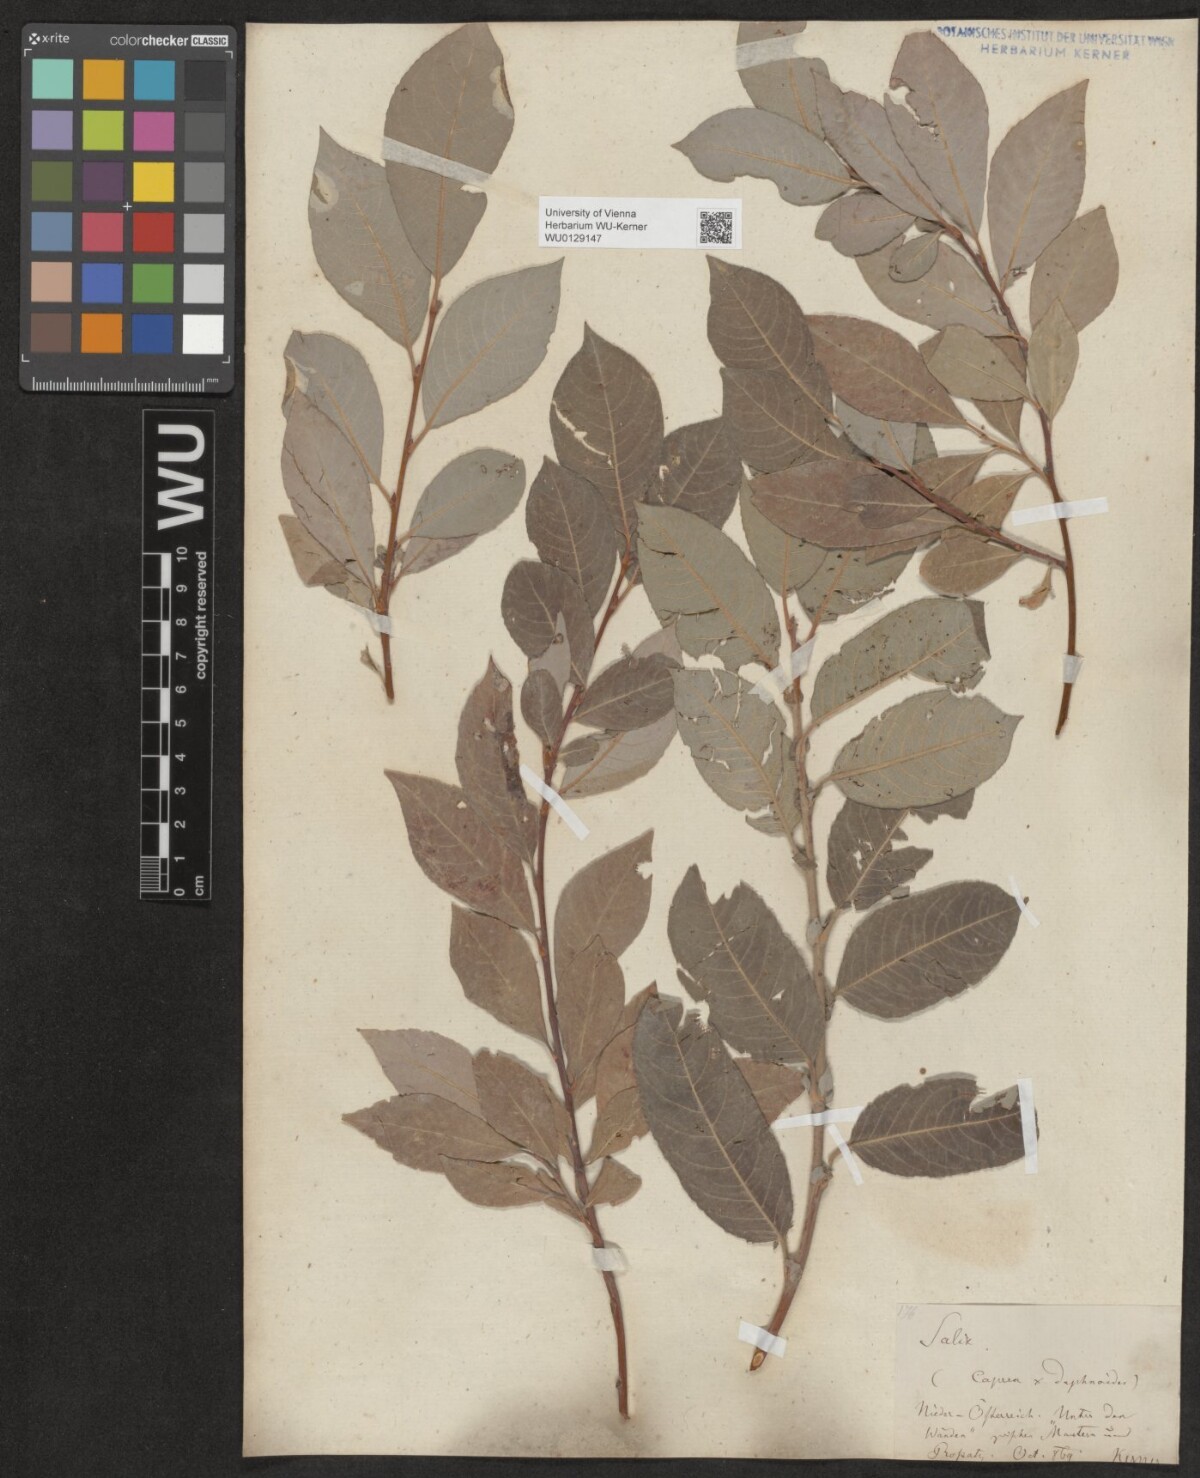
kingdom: Plantae
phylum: Tracheophyta
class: Magnoliopsida
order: Malpighiales
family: Salicaceae
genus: Salix
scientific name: Salix erdingeri
